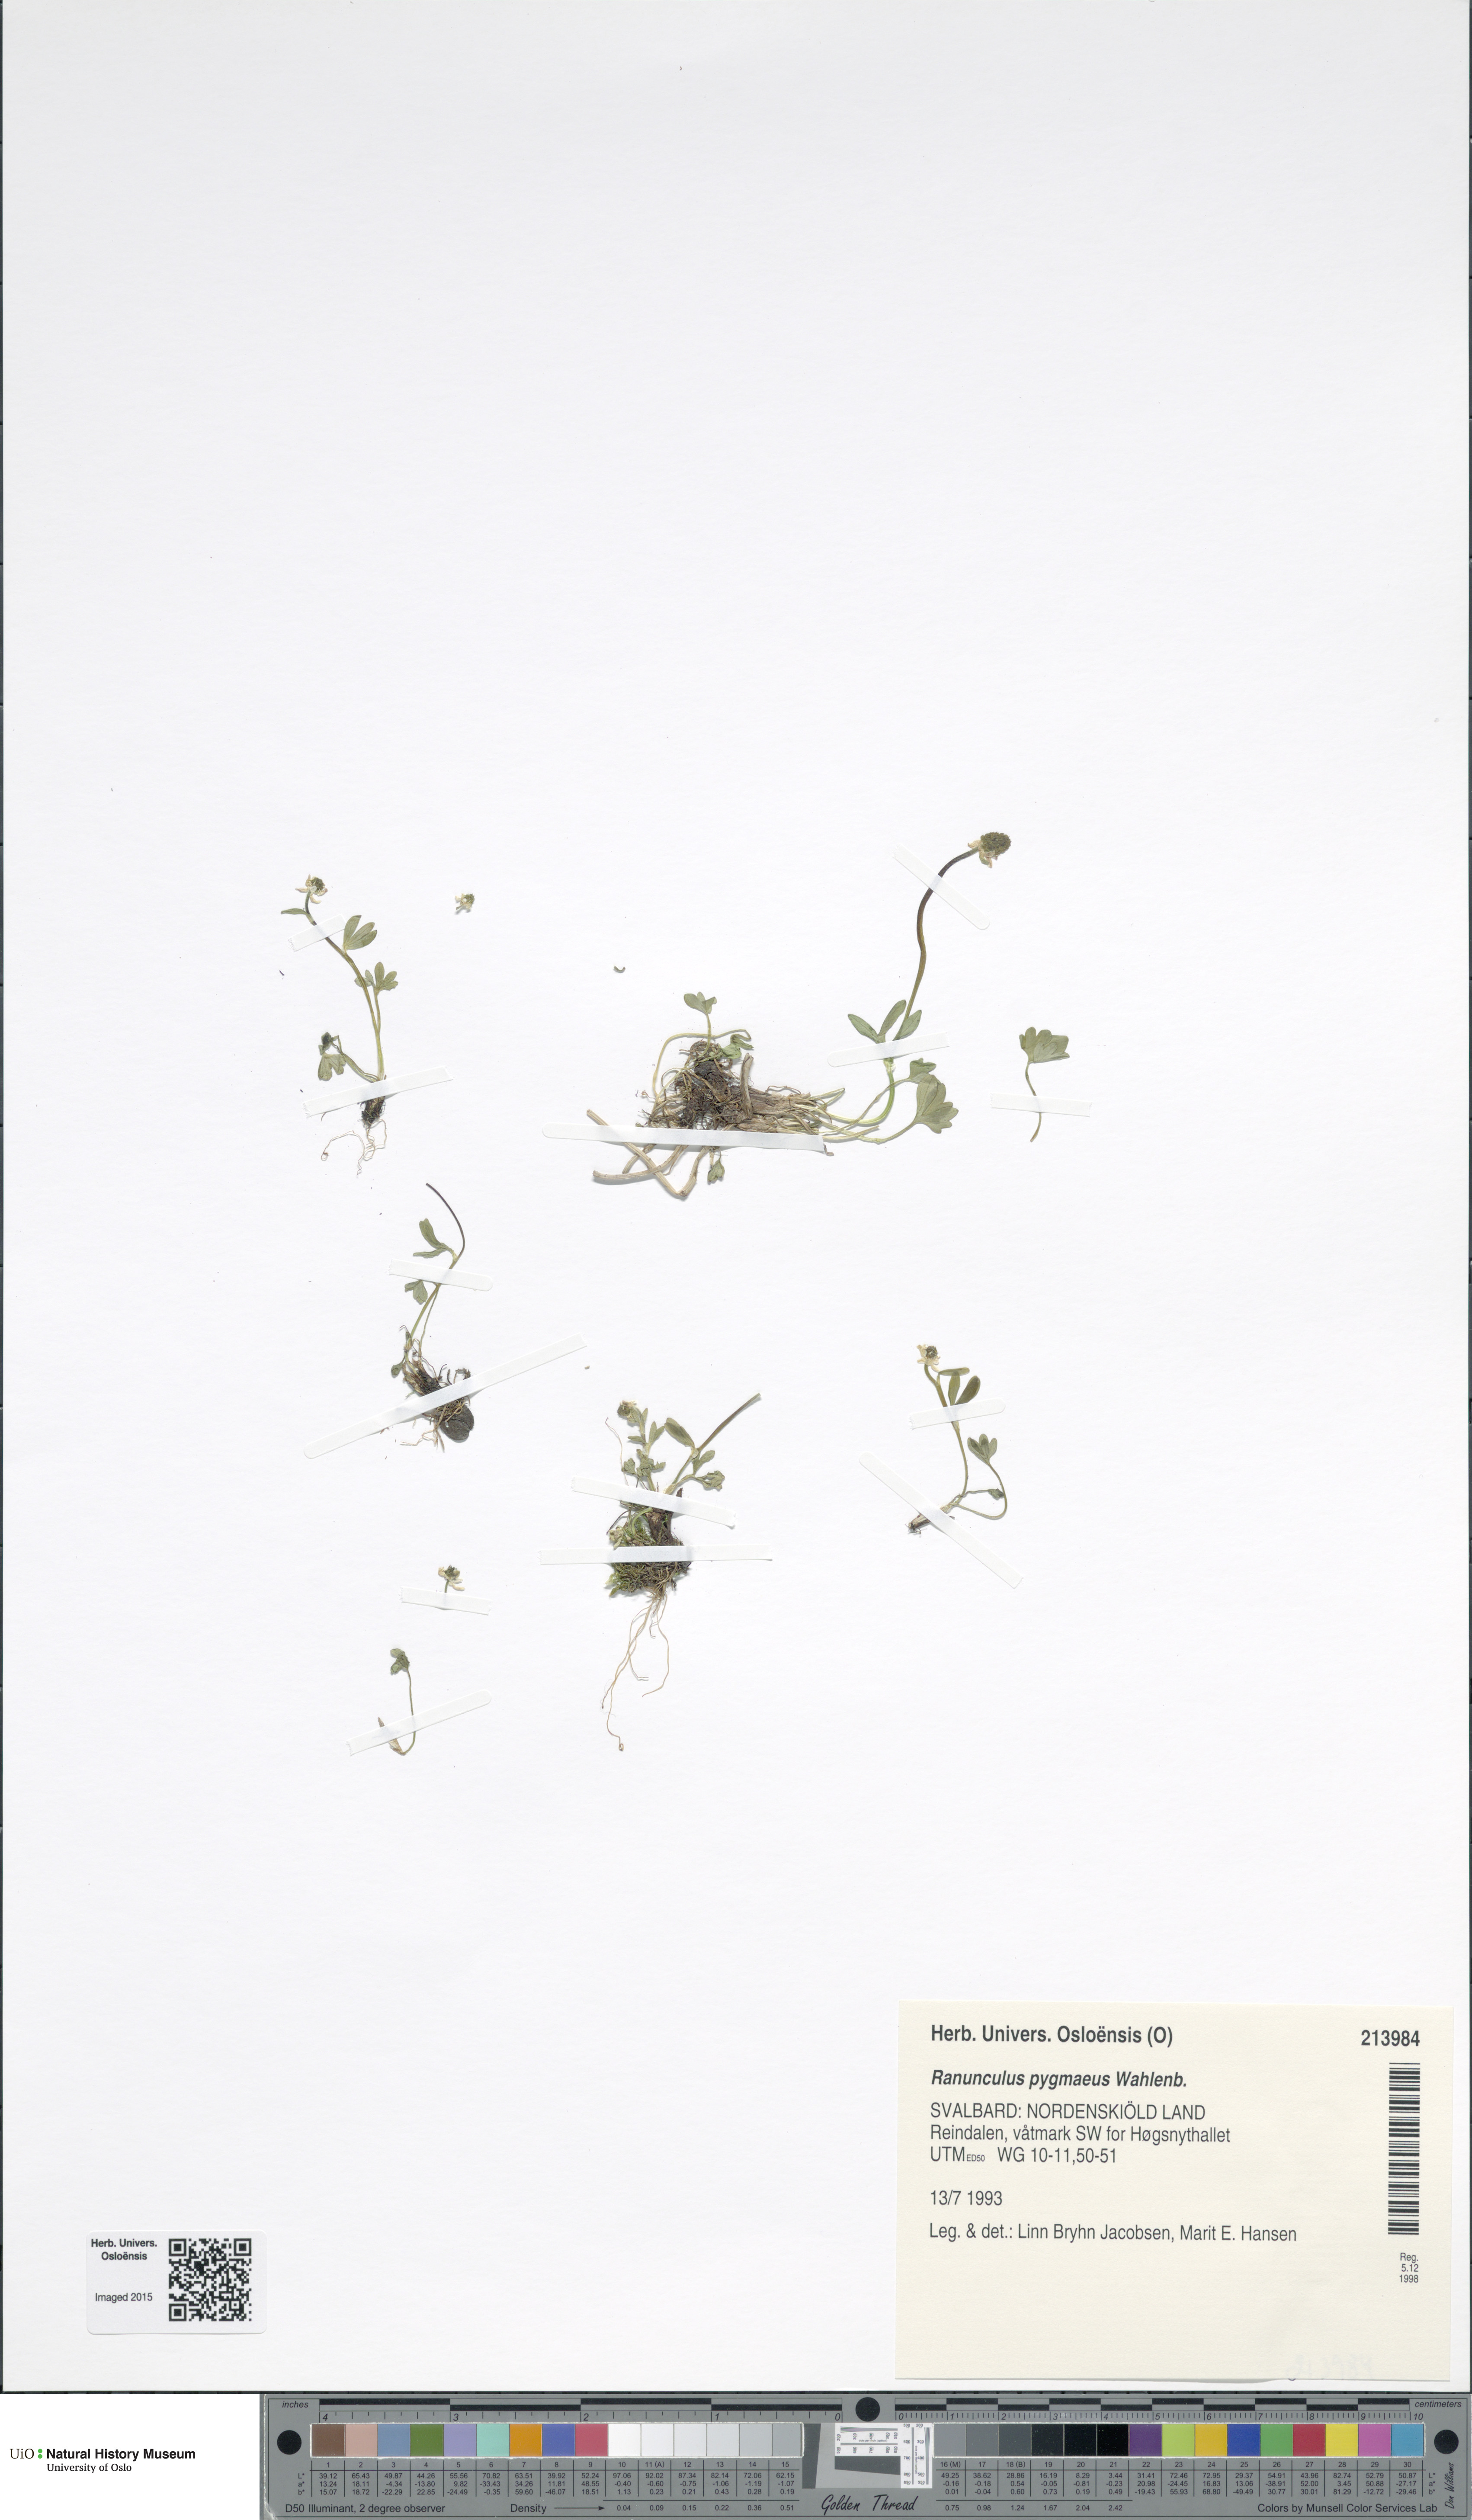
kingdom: Plantae
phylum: Tracheophyta
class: Magnoliopsida
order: Ranunculales
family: Ranunculaceae
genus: Ranunculus
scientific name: Ranunculus pygmaeus
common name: Dwarf buttercup
